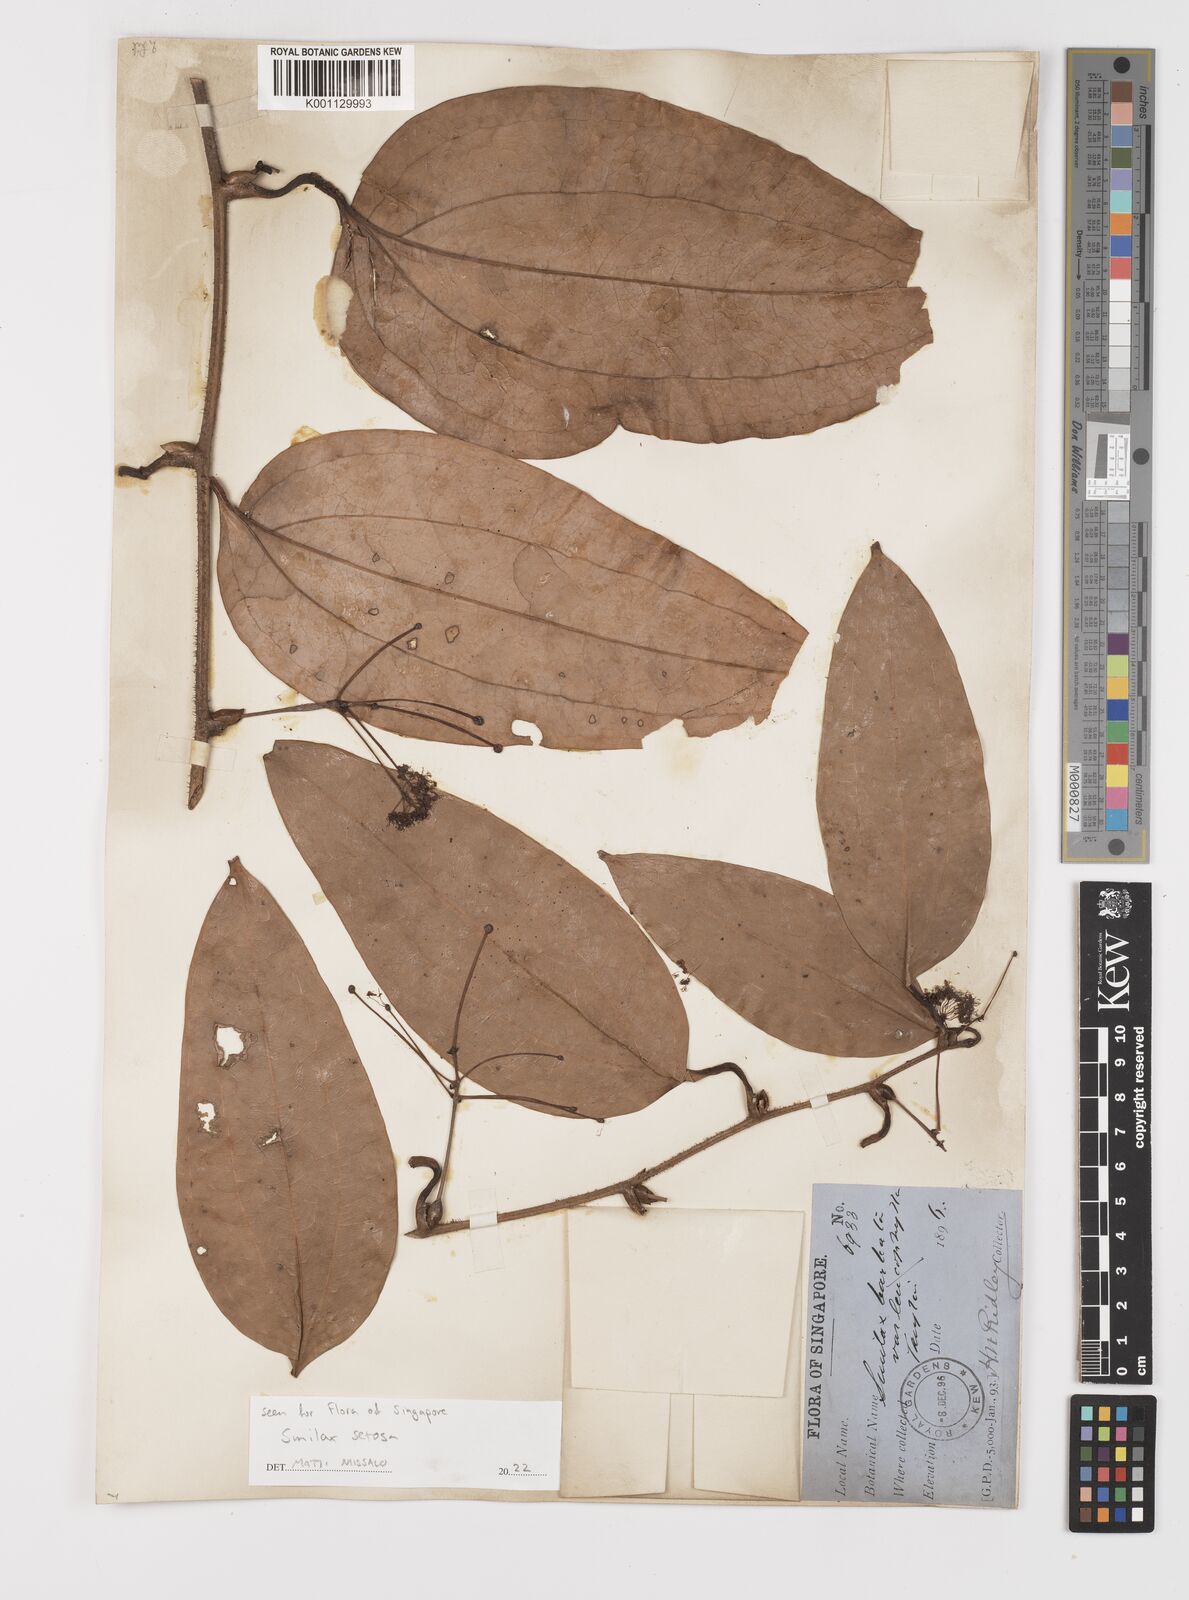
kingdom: Plantae
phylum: Tracheophyta
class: Liliopsida
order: Liliales
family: Smilacaceae
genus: Smilax
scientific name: Smilax setosa
